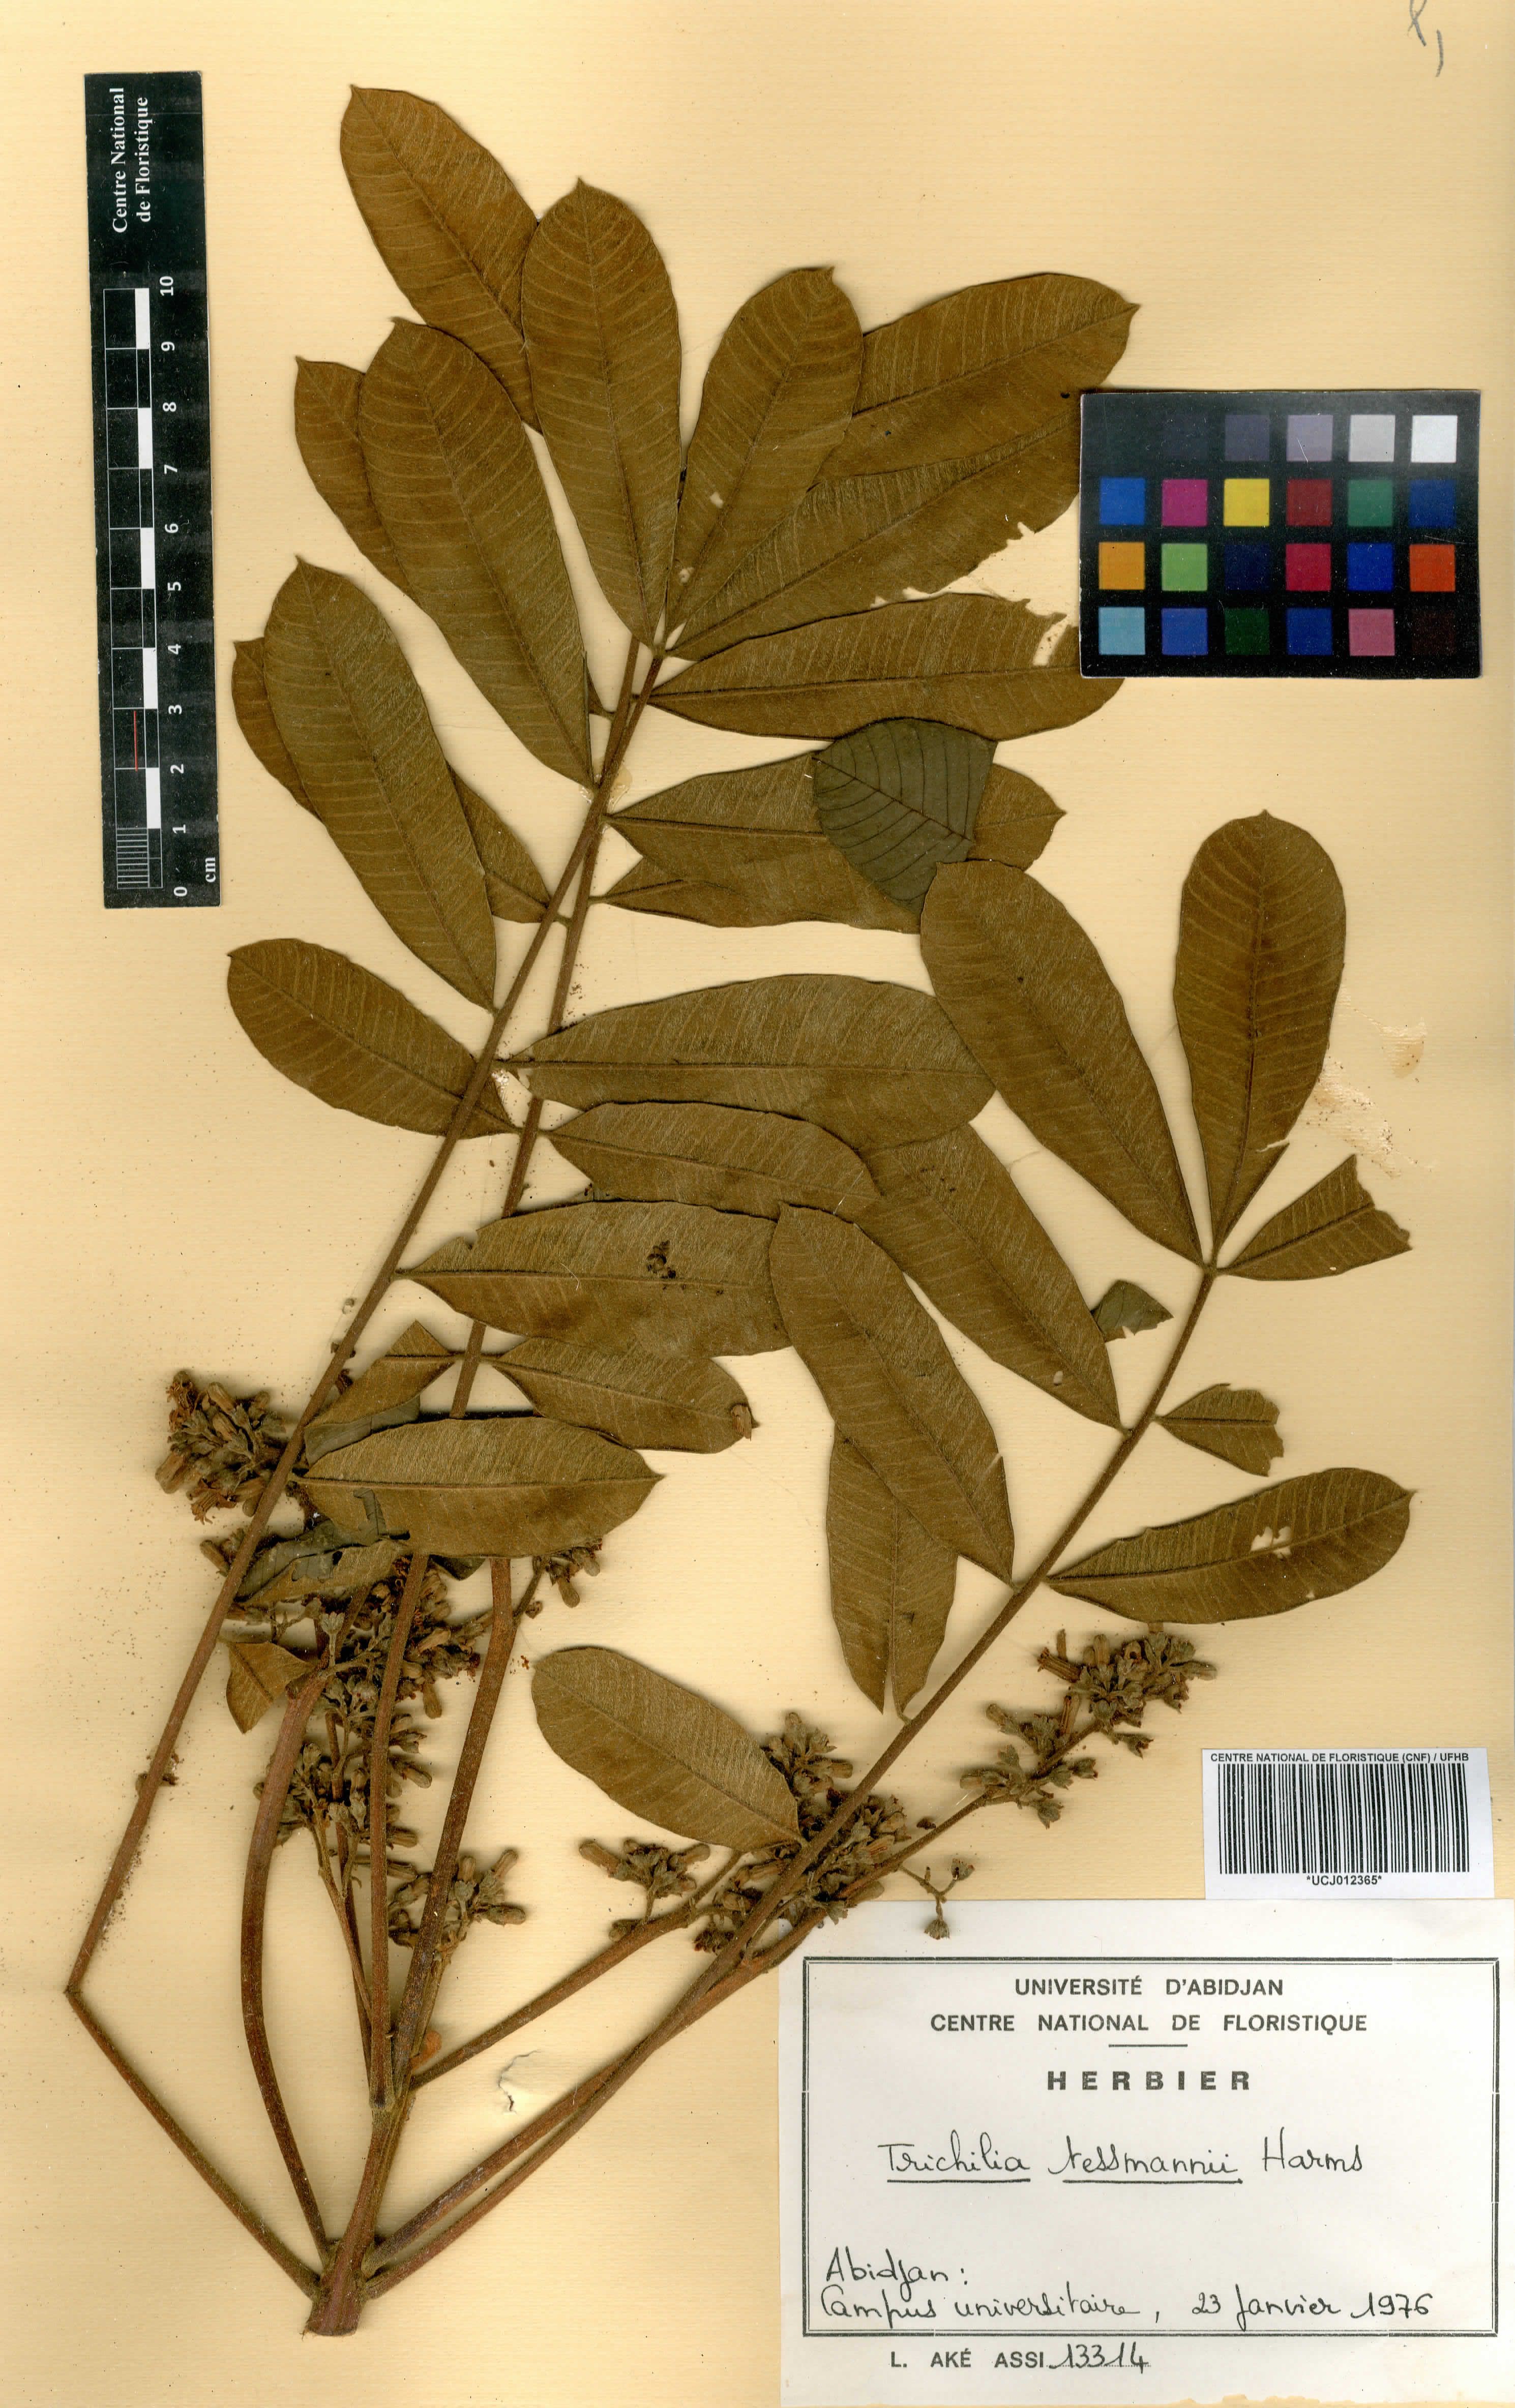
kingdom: Plantae
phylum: Tracheophyta
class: Magnoliopsida
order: Sapindales
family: Meliaceae
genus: Trichilia
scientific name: Trichilia tessmannii
